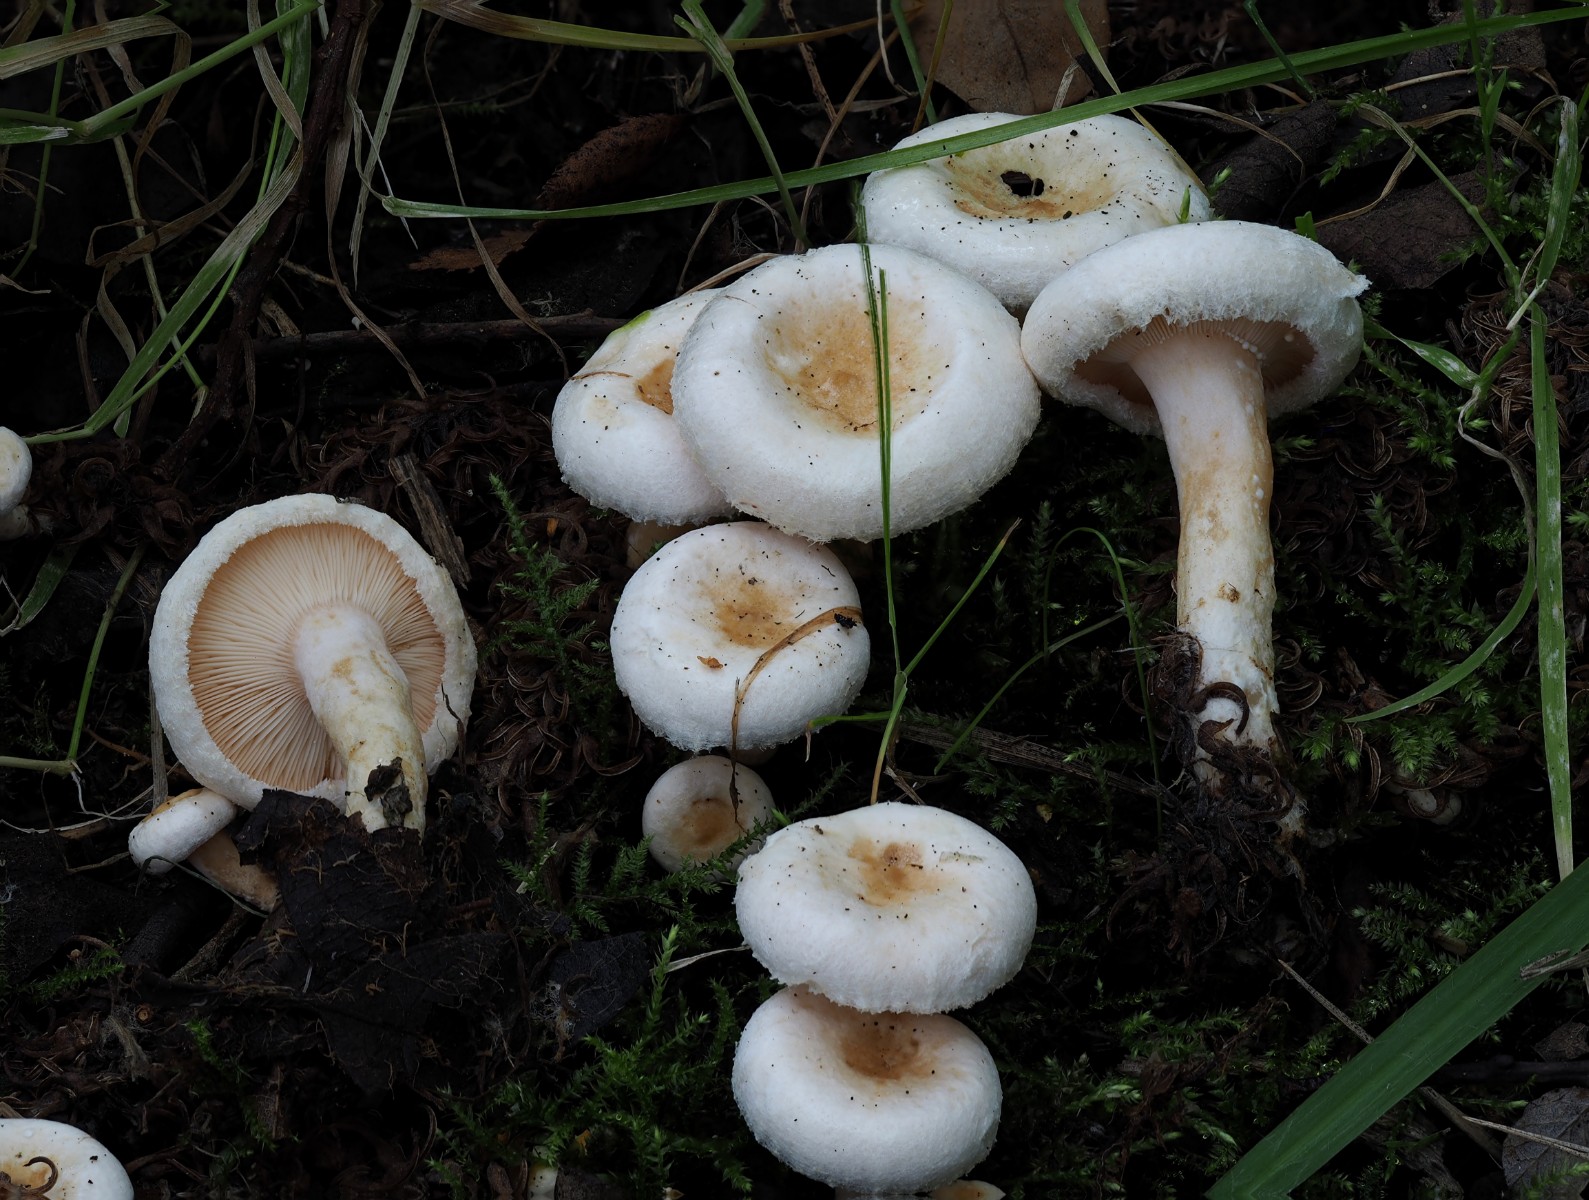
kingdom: Fungi
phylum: Basidiomycota
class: Agaricomycetes
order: Russulales
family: Russulaceae
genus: Lactarius
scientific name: Lactarius scoticus
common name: tørve-mælkehat
